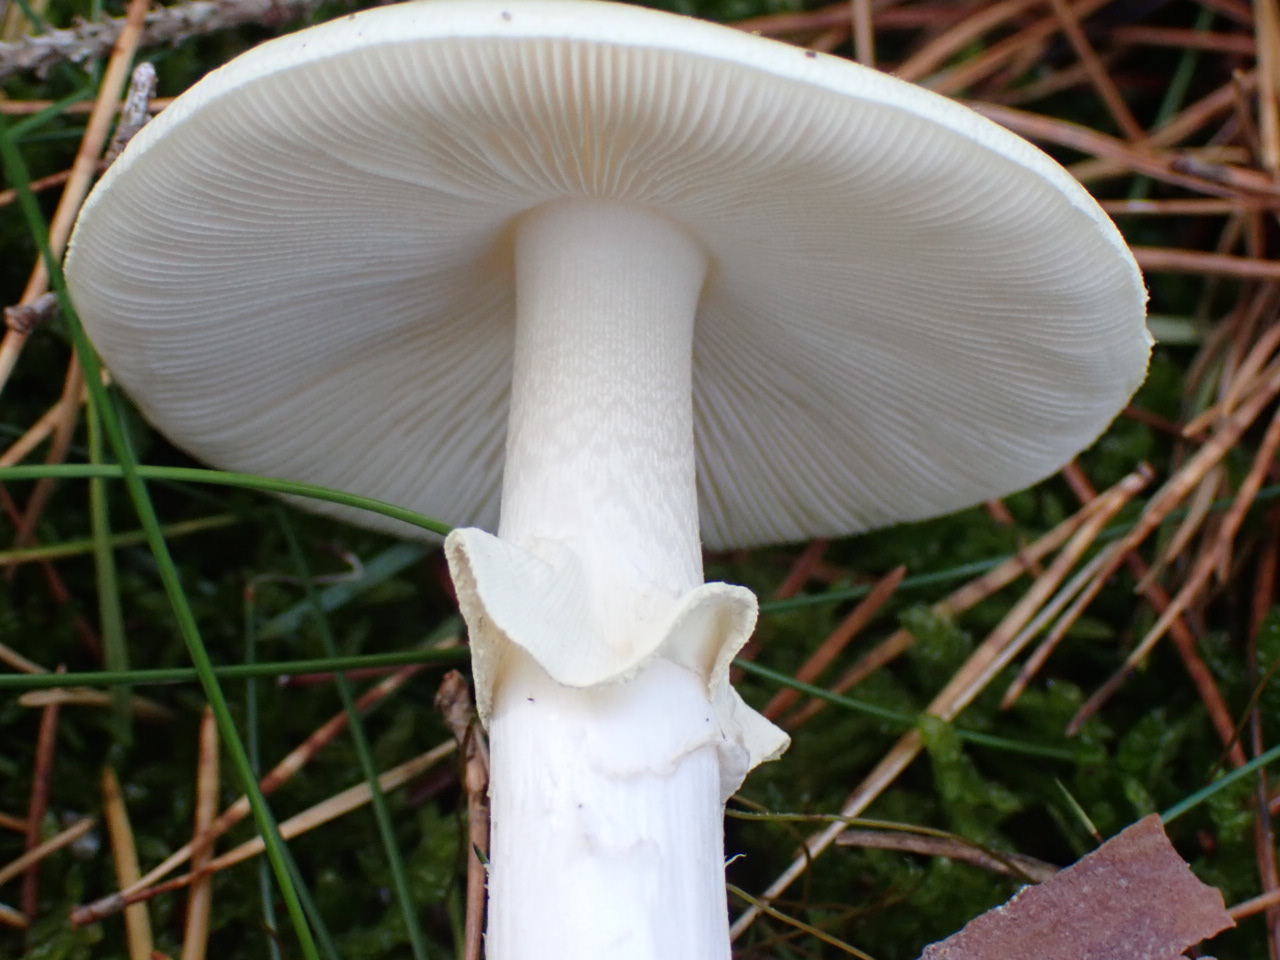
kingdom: Fungi
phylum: Basidiomycota
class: Agaricomycetes
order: Agaricales
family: Amanitaceae
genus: Amanita
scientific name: Amanita citrina
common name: False death-cap
